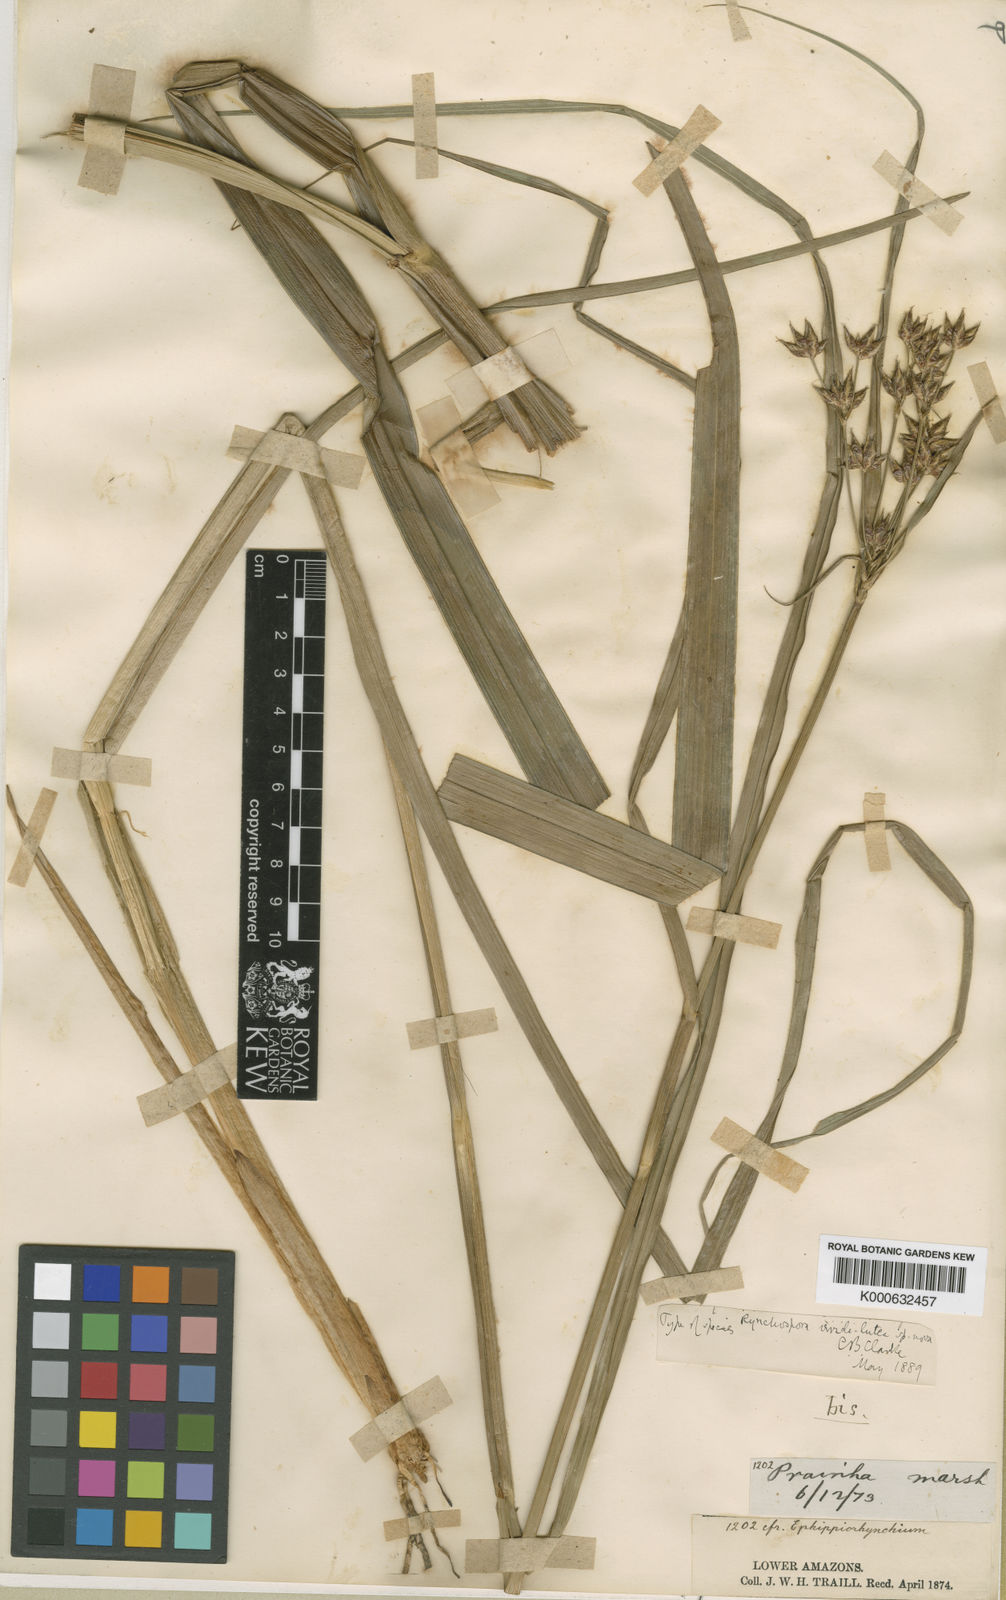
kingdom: Plantae
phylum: Tracheophyta
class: Liliopsida
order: Poales
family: Cyperaceae
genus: Rhynchospora
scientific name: Rhynchospora hassleri
